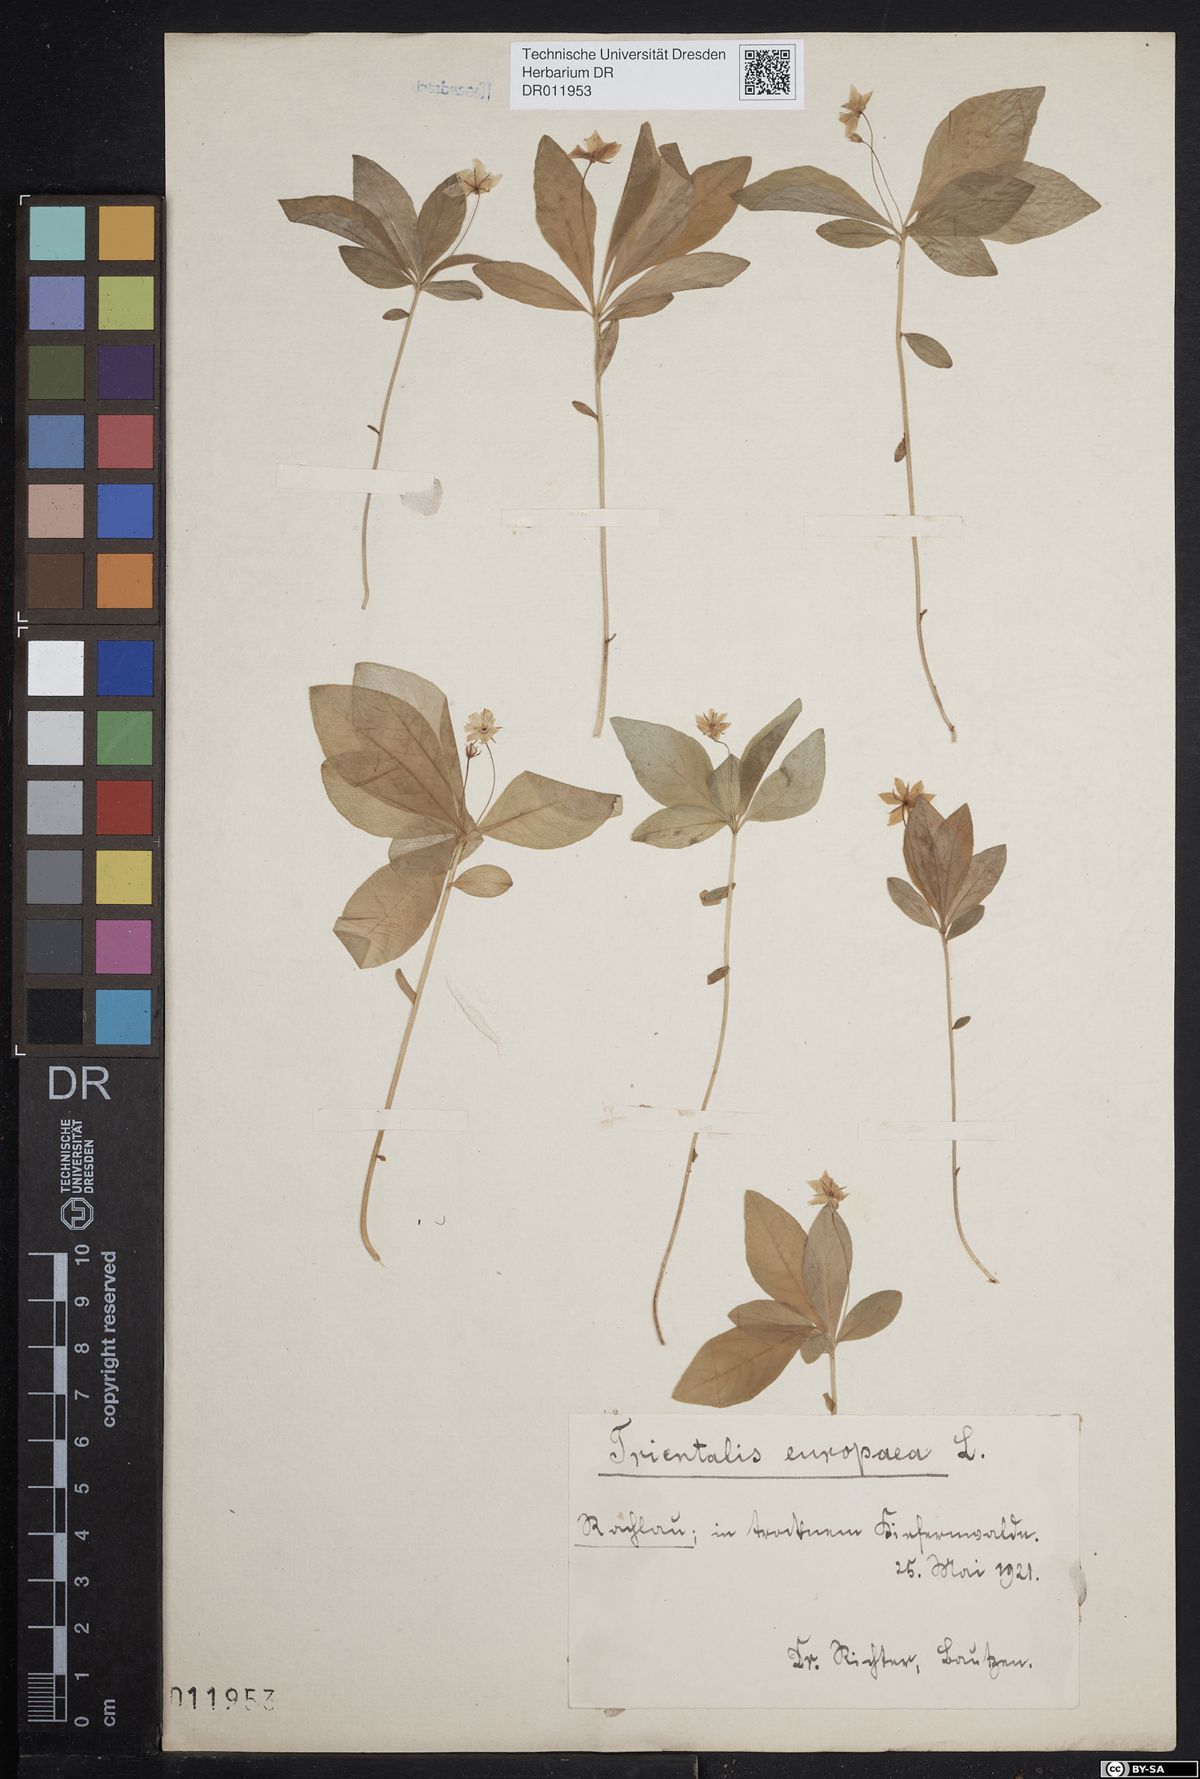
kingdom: Plantae
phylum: Tracheophyta
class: Magnoliopsida
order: Ericales
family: Primulaceae
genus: Lysimachia
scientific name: Lysimachia europaea
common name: Arctic starflower
